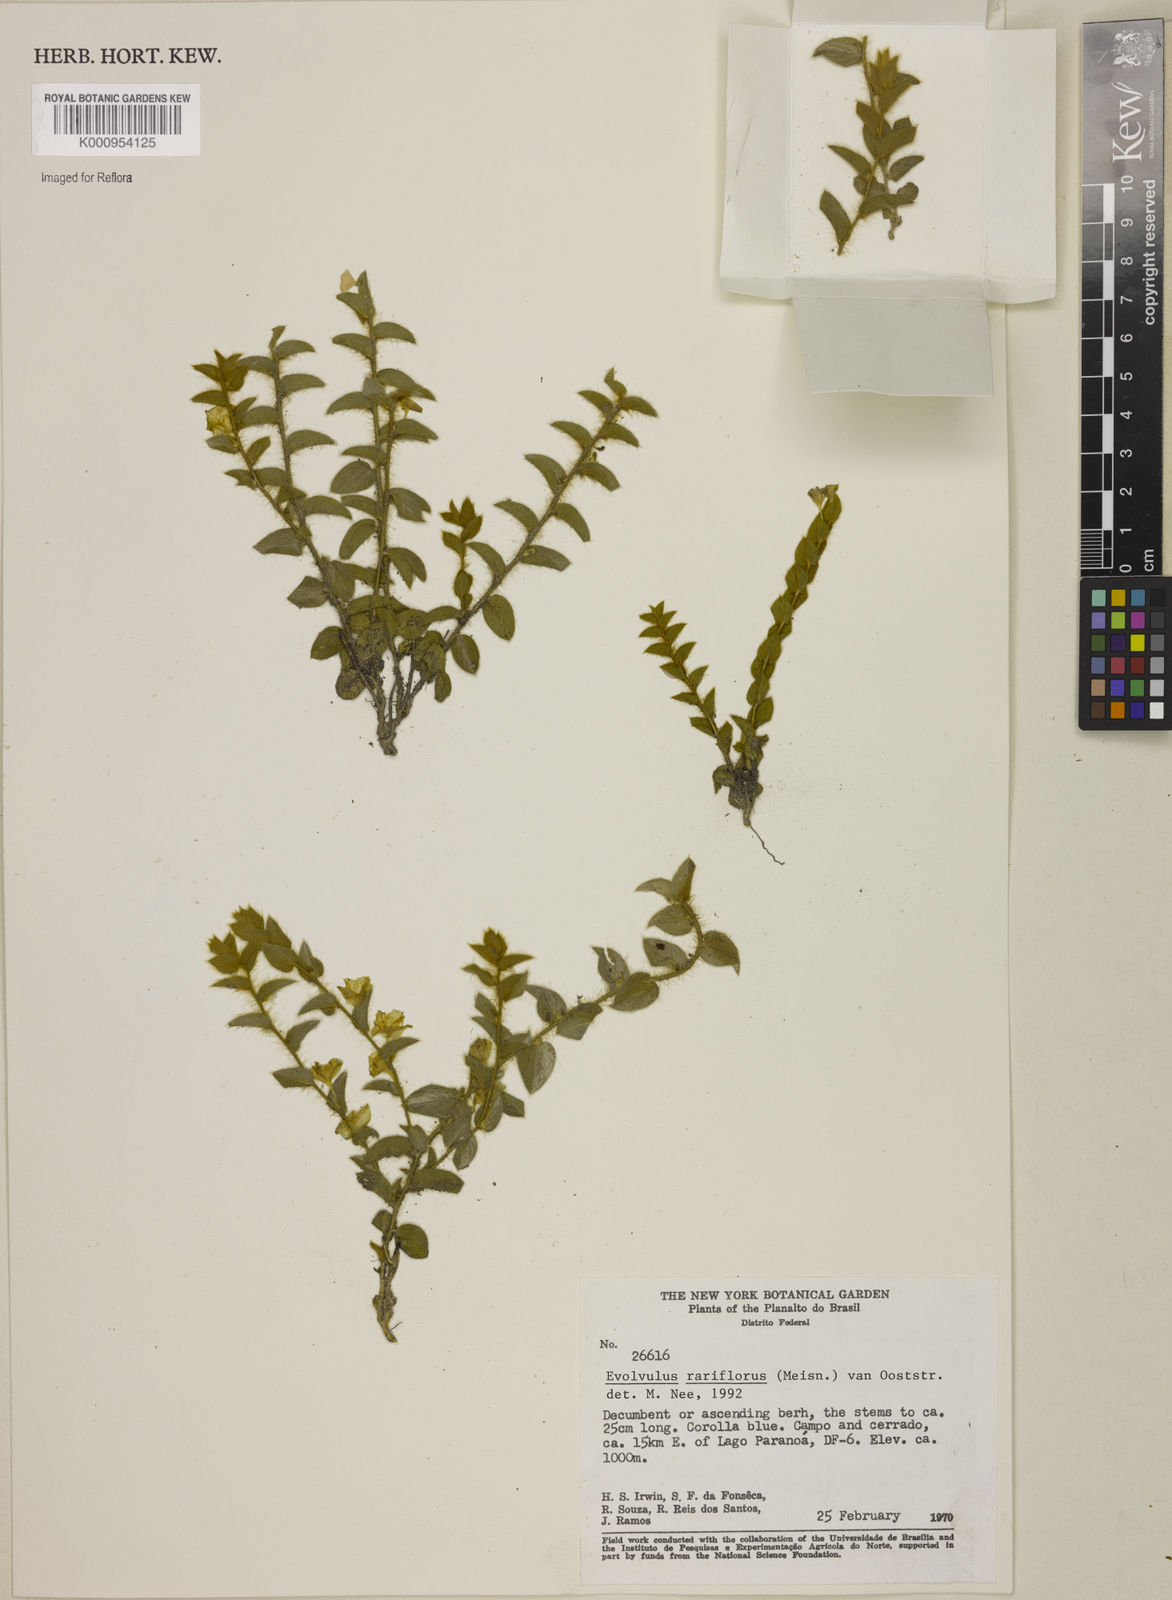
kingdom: Plantae
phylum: Tracheophyta
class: Magnoliopsida
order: Solanales
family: Convolvulaceae
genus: Evolvulus
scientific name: Evolvulus rariflorus
